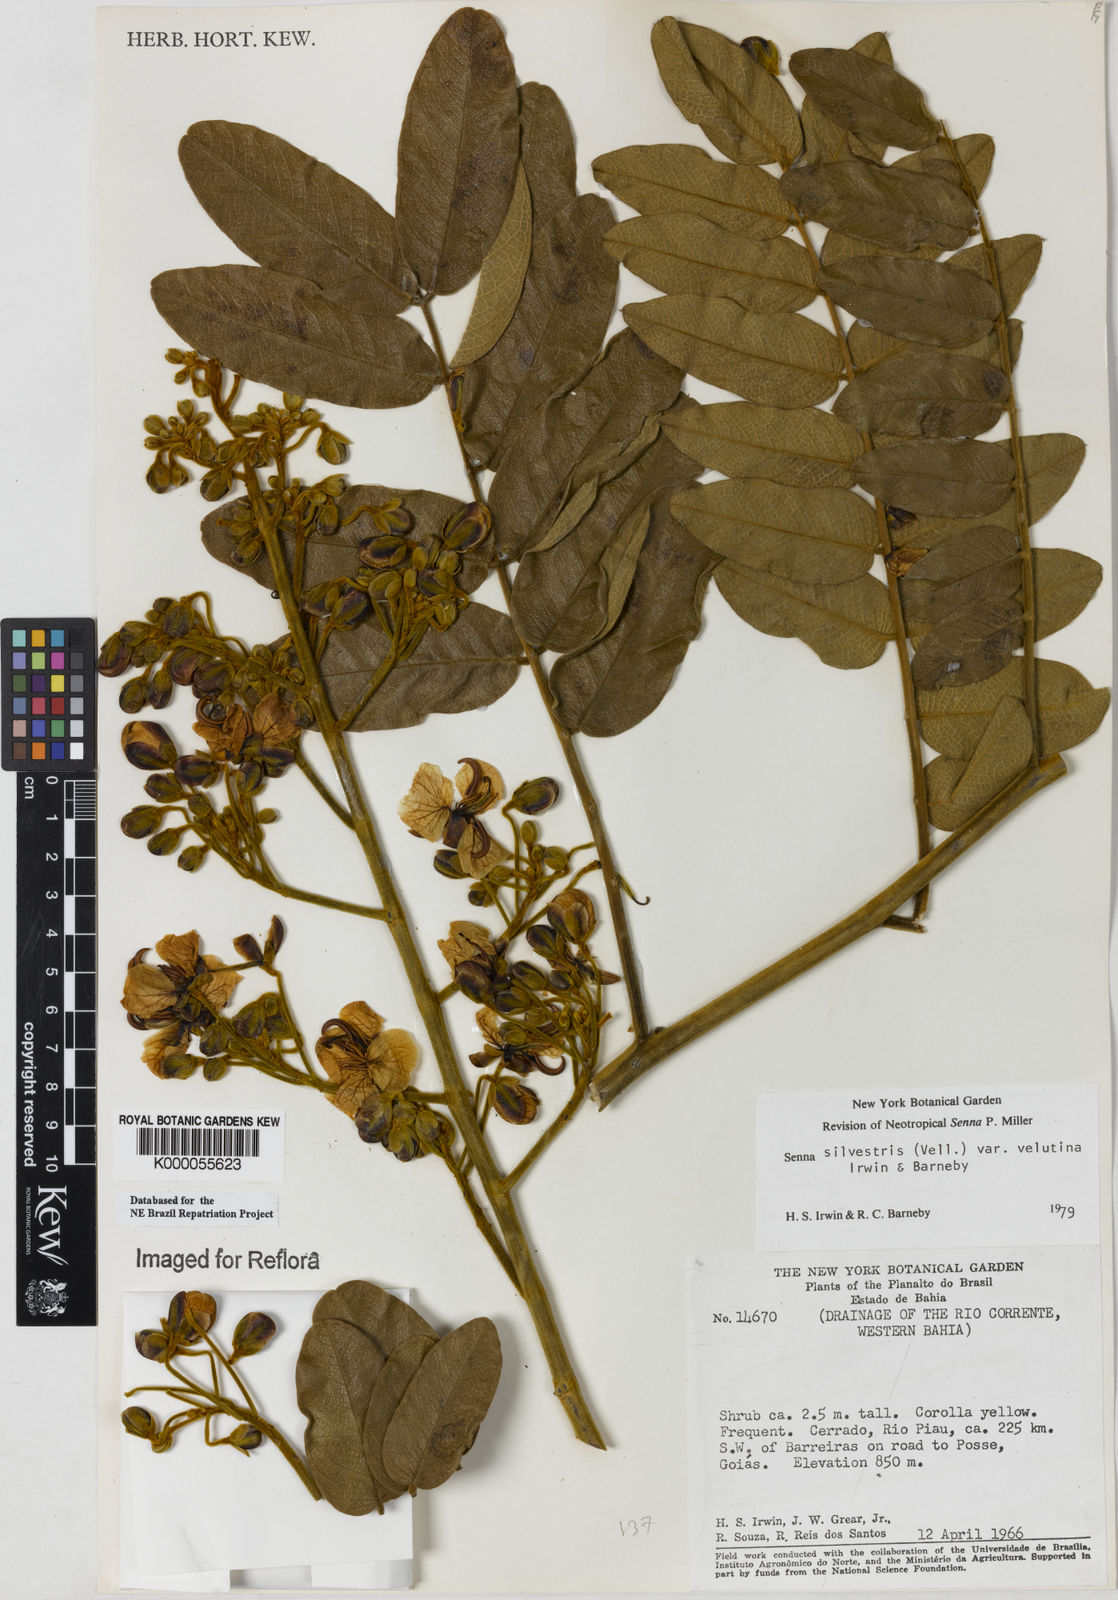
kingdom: Plantae
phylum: Tracheophyta
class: Magnoliopsida
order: Fabales
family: Fabaceae
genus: Senna
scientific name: Senna silvestris
